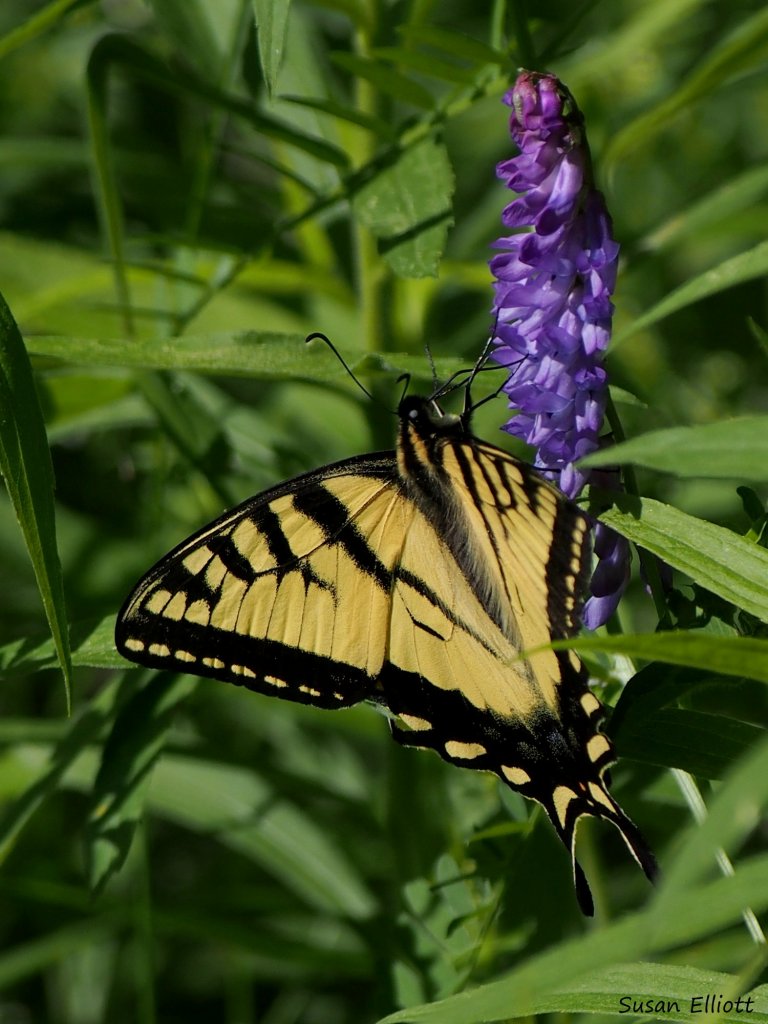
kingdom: Animalia
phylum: Arthropoda
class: Insecta
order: Lepidoptera
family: Papilionidae
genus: Pterourus
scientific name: Pterourus canadensis
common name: Canadian Tiger Swallowtail
